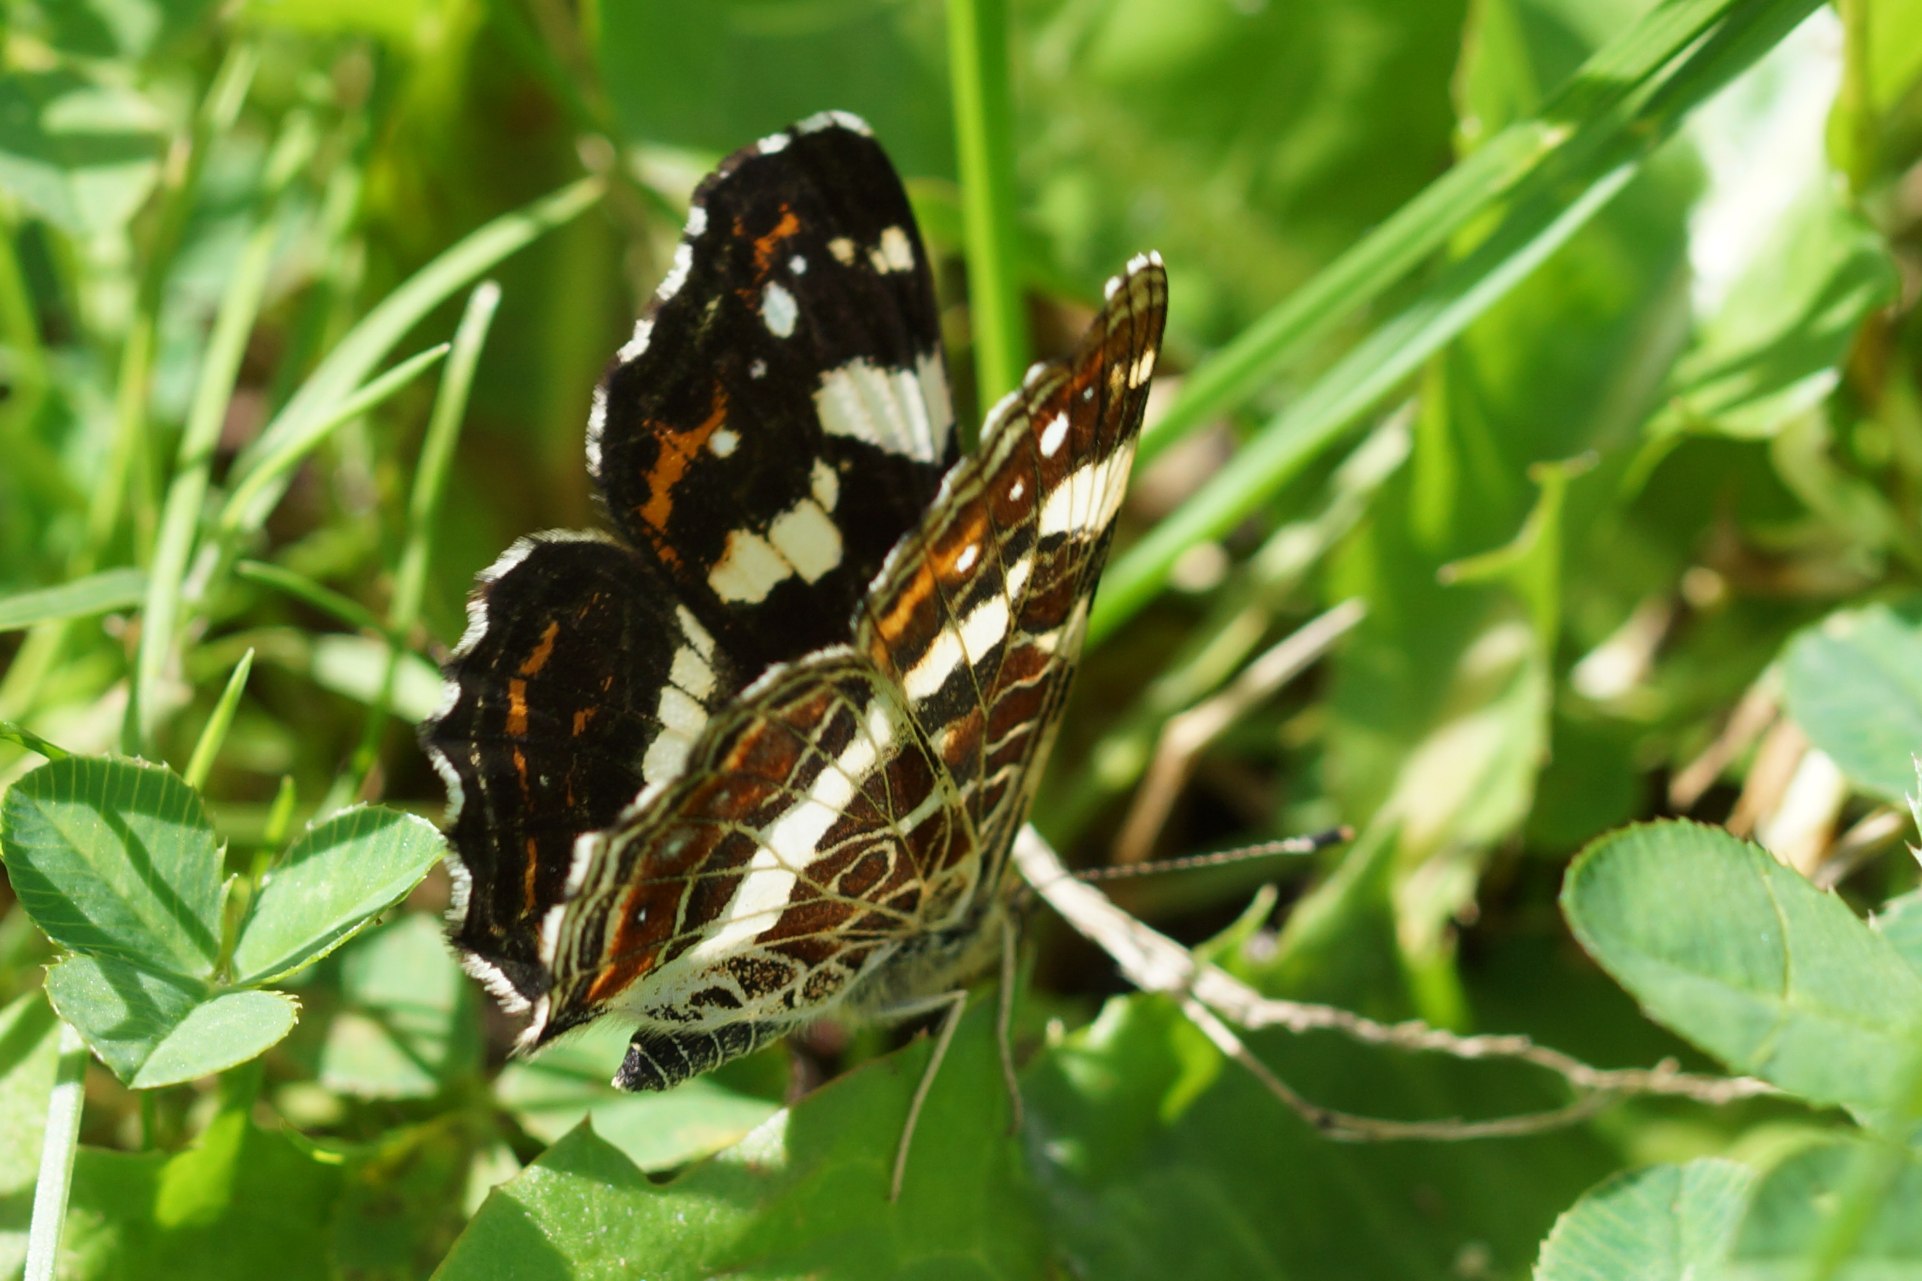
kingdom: Animalia
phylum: Arthropoda
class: Insecta
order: Lepidoptera
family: Nymphalidae
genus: Araschnia
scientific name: Araschnia levana
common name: Nældesommerfugl
